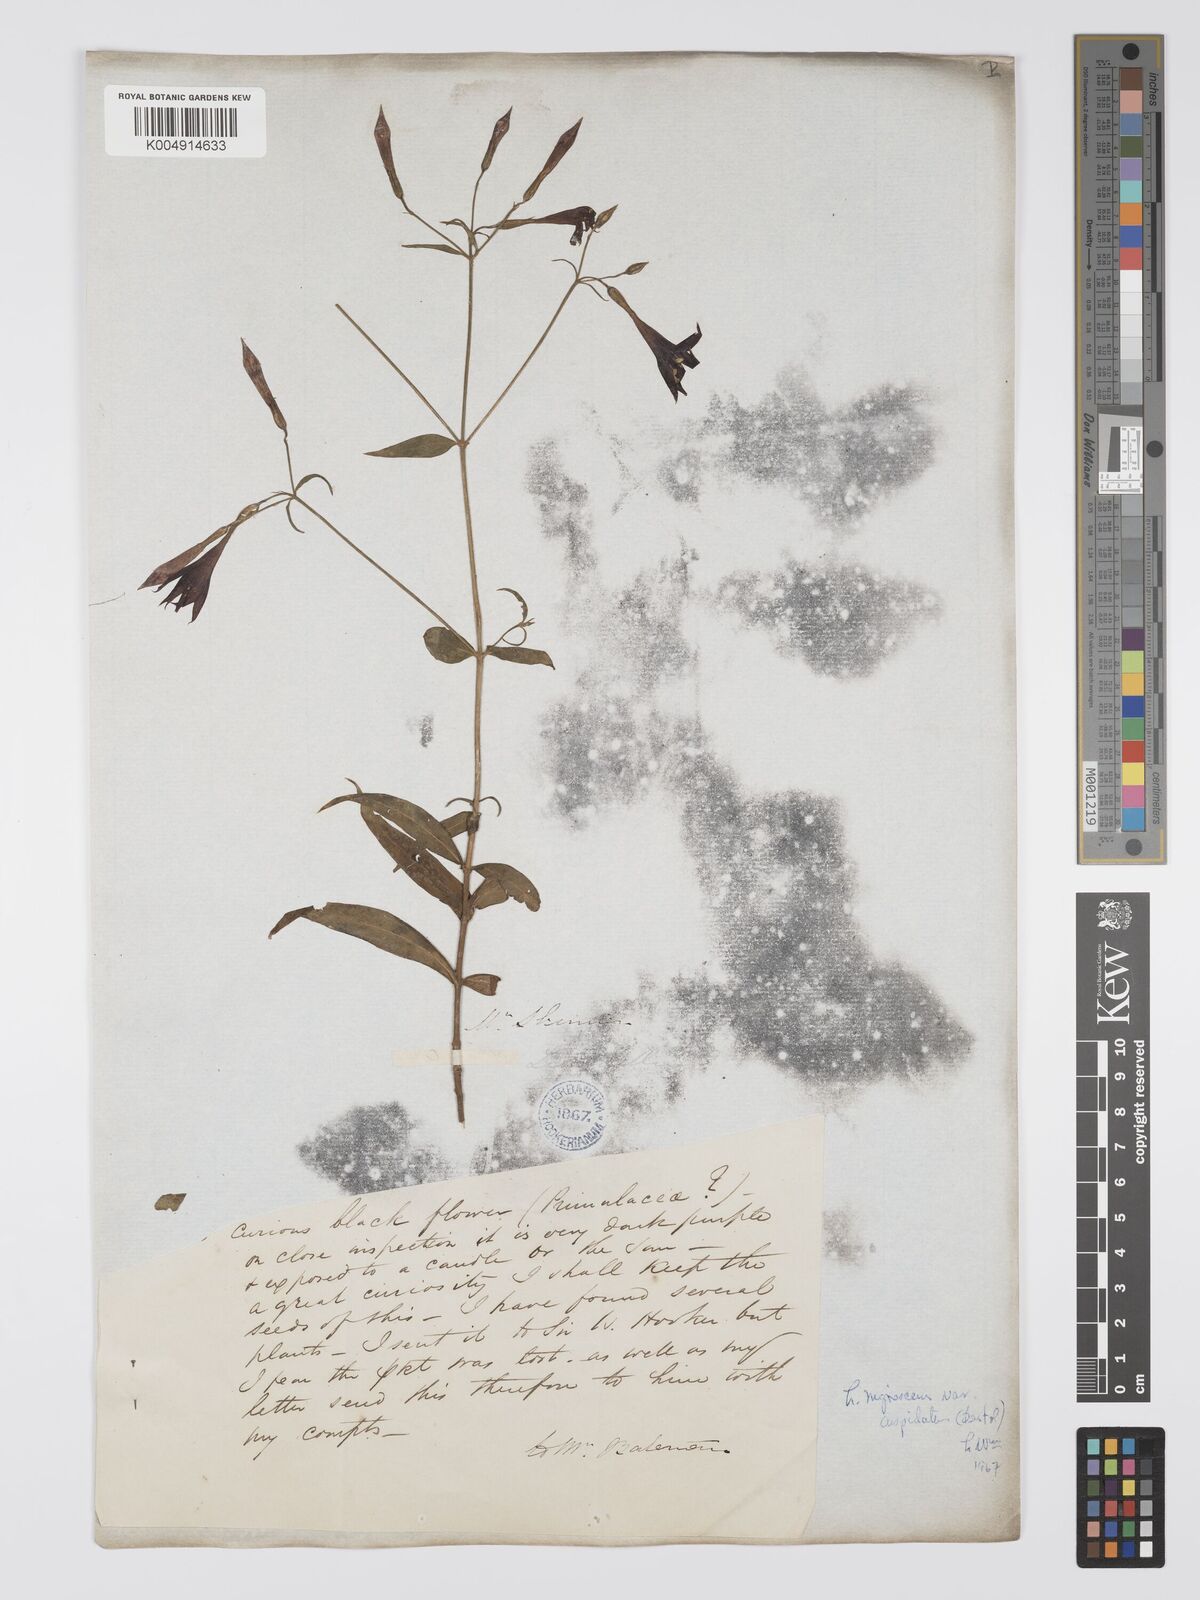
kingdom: Plantae
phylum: Tracheophyta
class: Magnoliopsida
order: Gentianales
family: Gentianaceae
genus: Lisianthius
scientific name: Lisianthius cuspidatus
